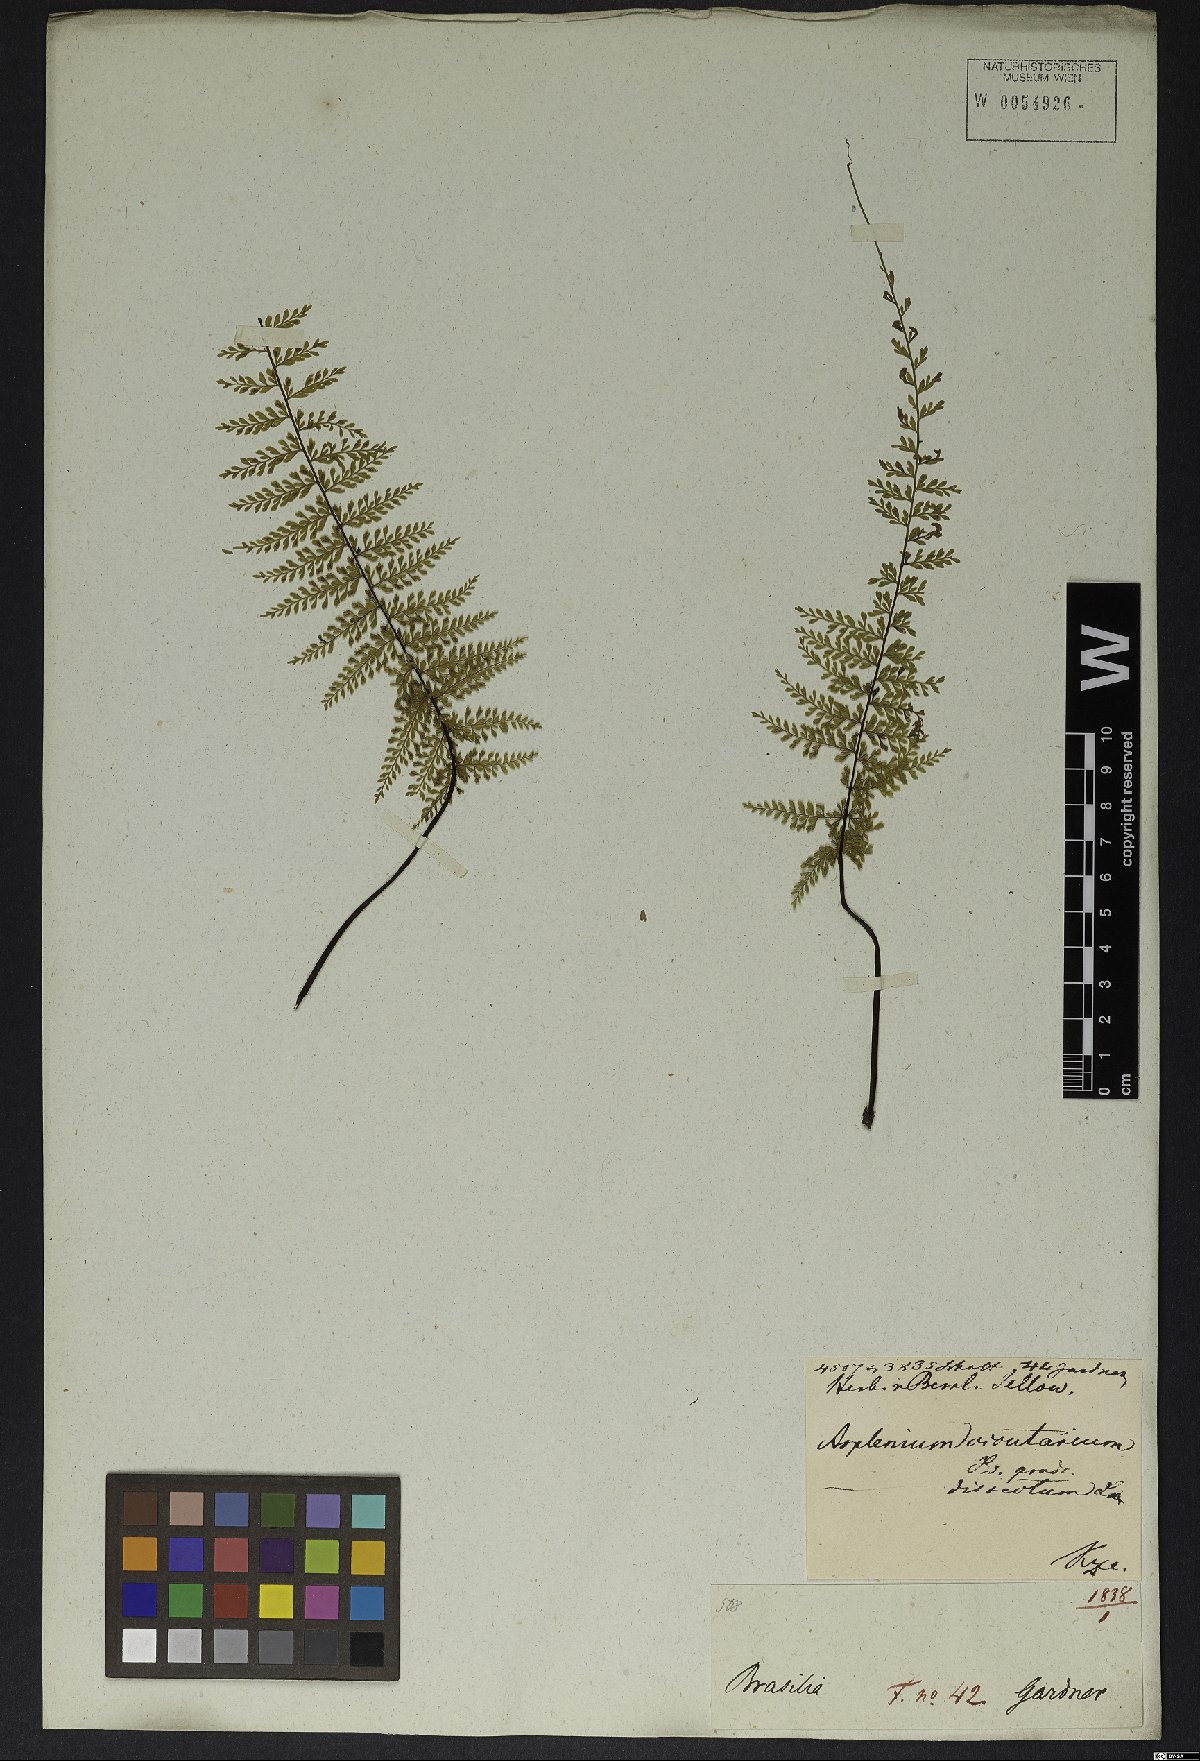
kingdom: Plantae
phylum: Tracheophyta
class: Polypodiopsida
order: Polypodiales
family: Aspleniaceae
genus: Asplenium
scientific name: Asplenium cristatum
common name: Parsley spleenwort
